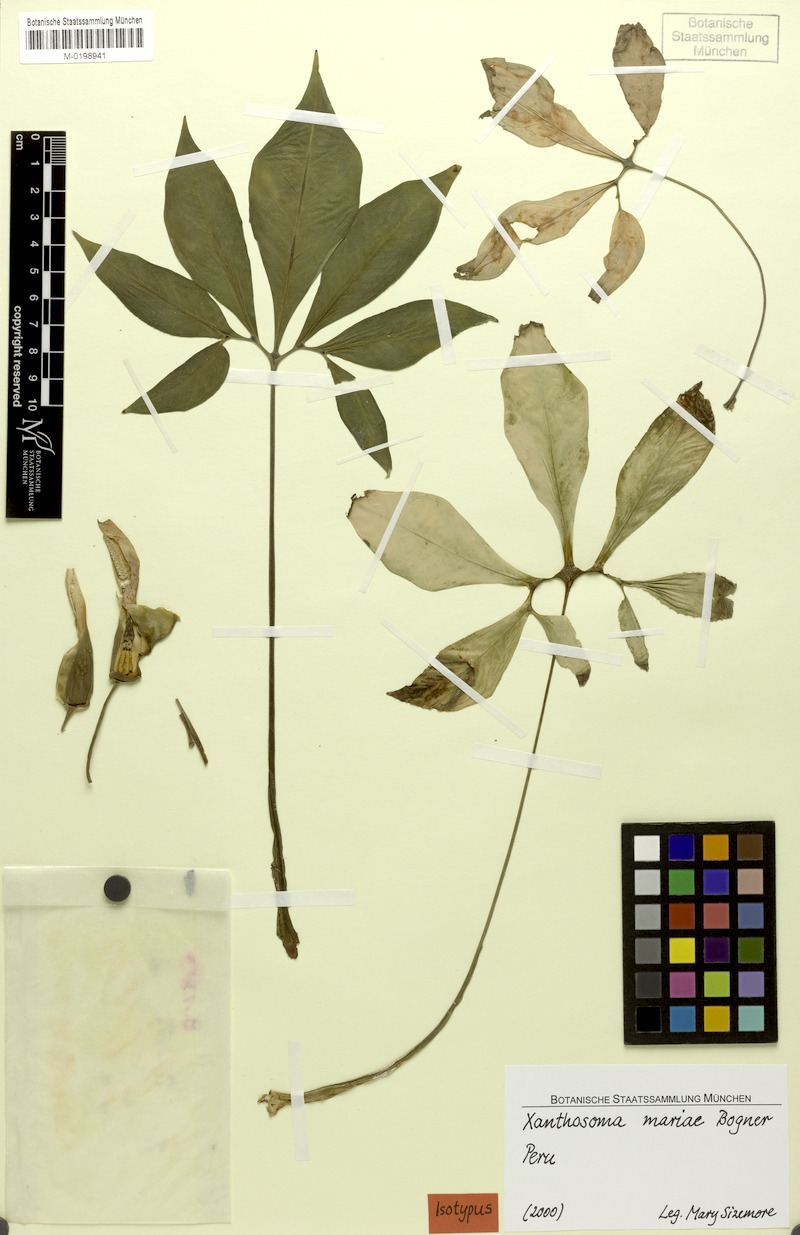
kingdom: Plantae
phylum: Tracheophyta
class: Liliopsida
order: Alismatales
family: Araceae
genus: Xanthosoma
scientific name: Xanthosoma mariae
